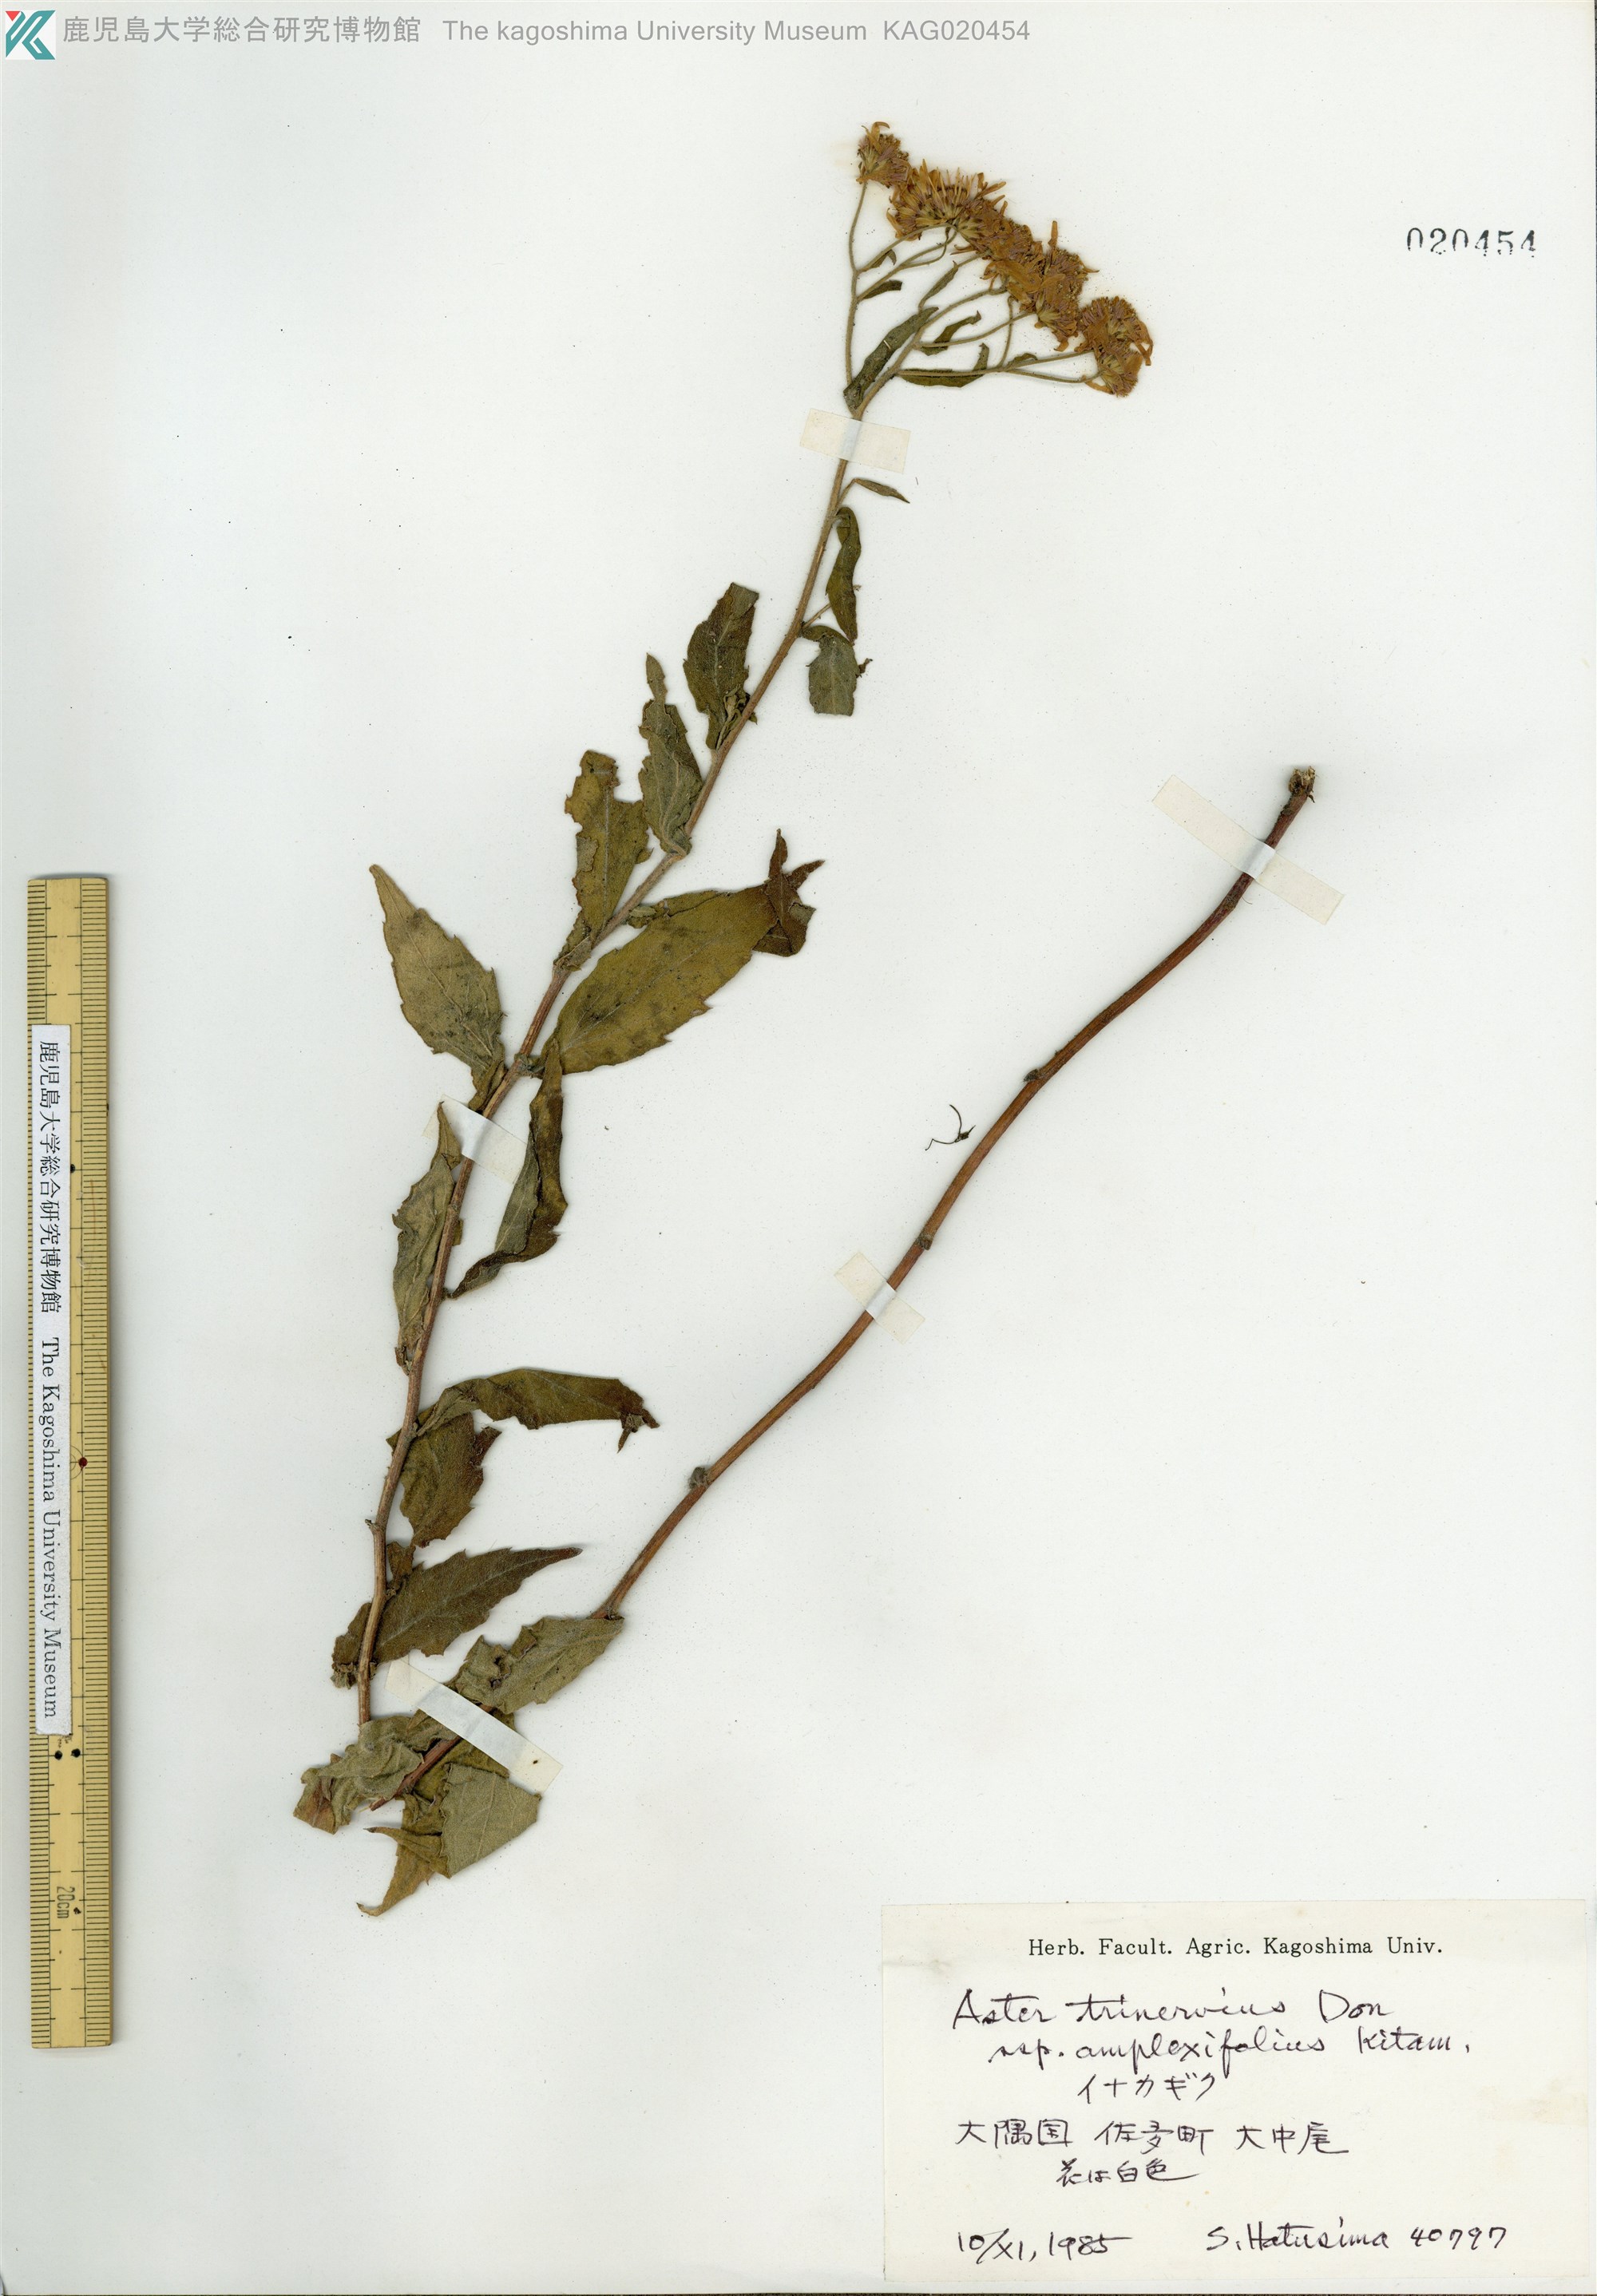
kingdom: Plantae
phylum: Tracheophyta
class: Magnoliopsida
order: Asterales
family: Asteraceae
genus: Aster
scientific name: Aster satsumensis
